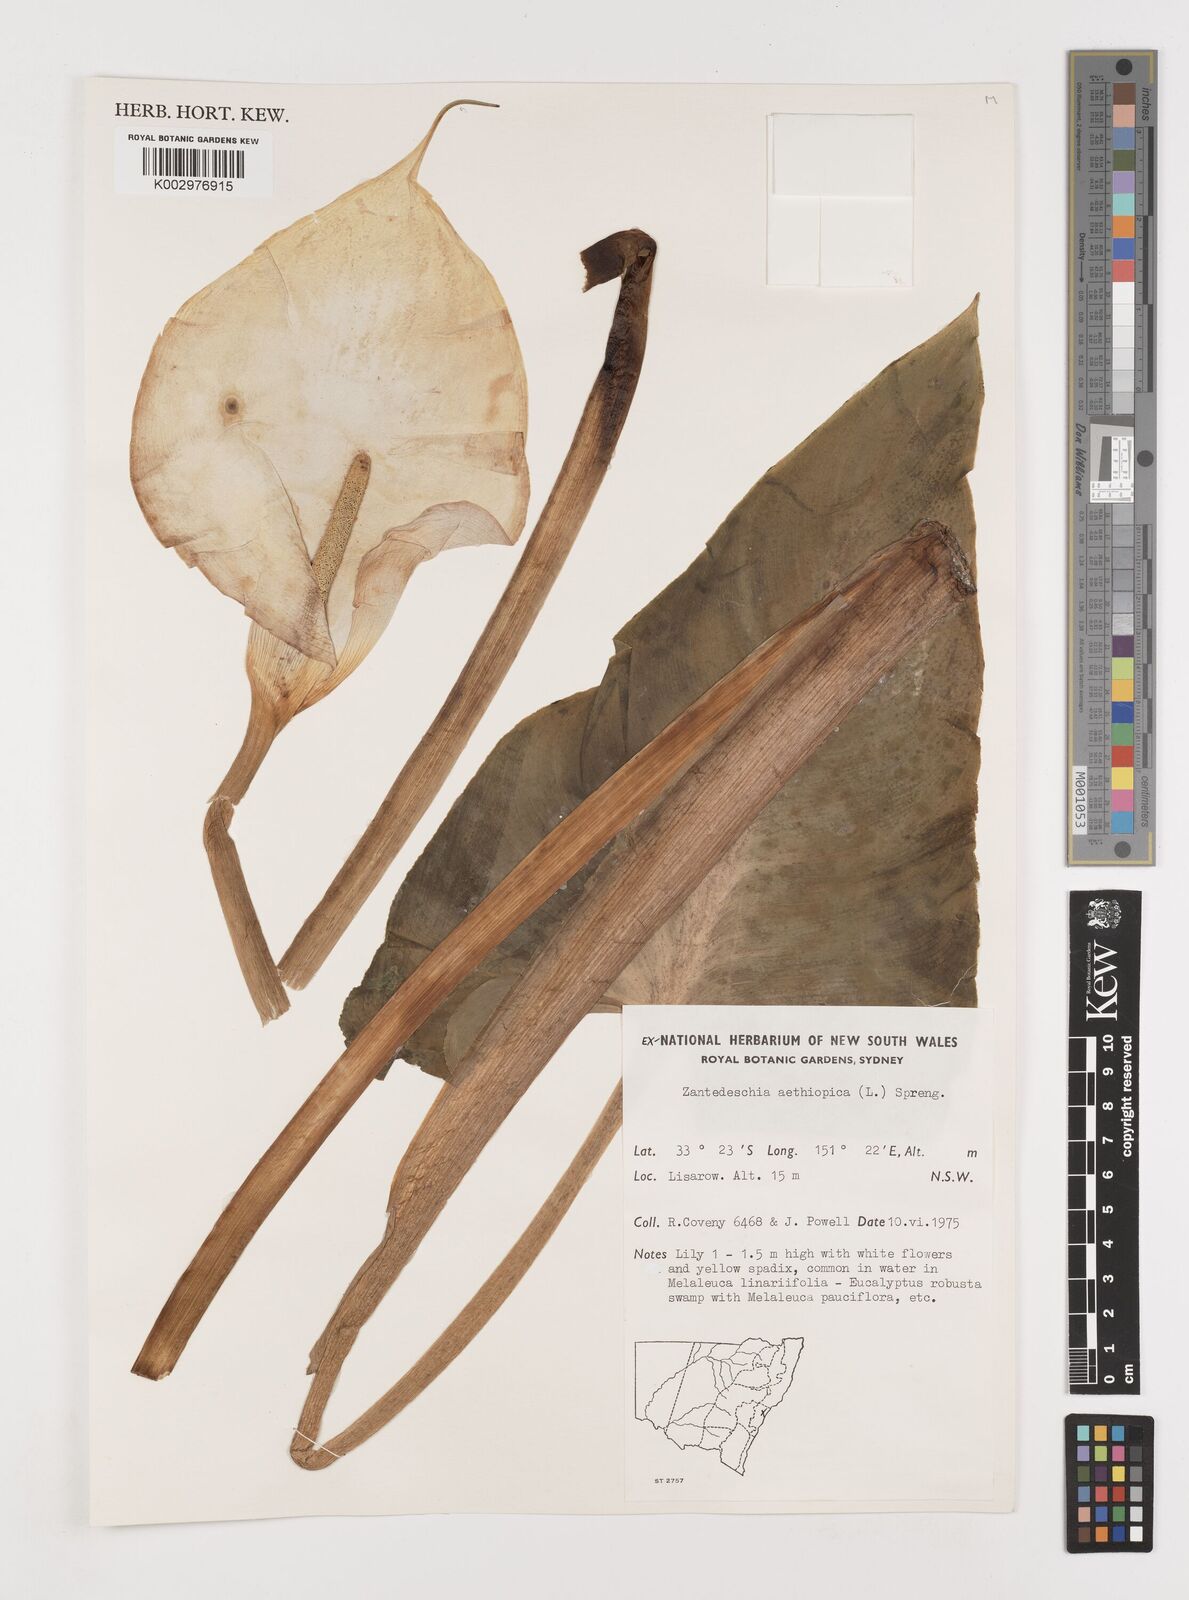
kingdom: Plantae
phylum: Tracheophyta
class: Liliopsida
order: Alismatales
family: Araceae
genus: Zantedeschia
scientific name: Zantedeschia aethiopica
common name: Altar-lily
